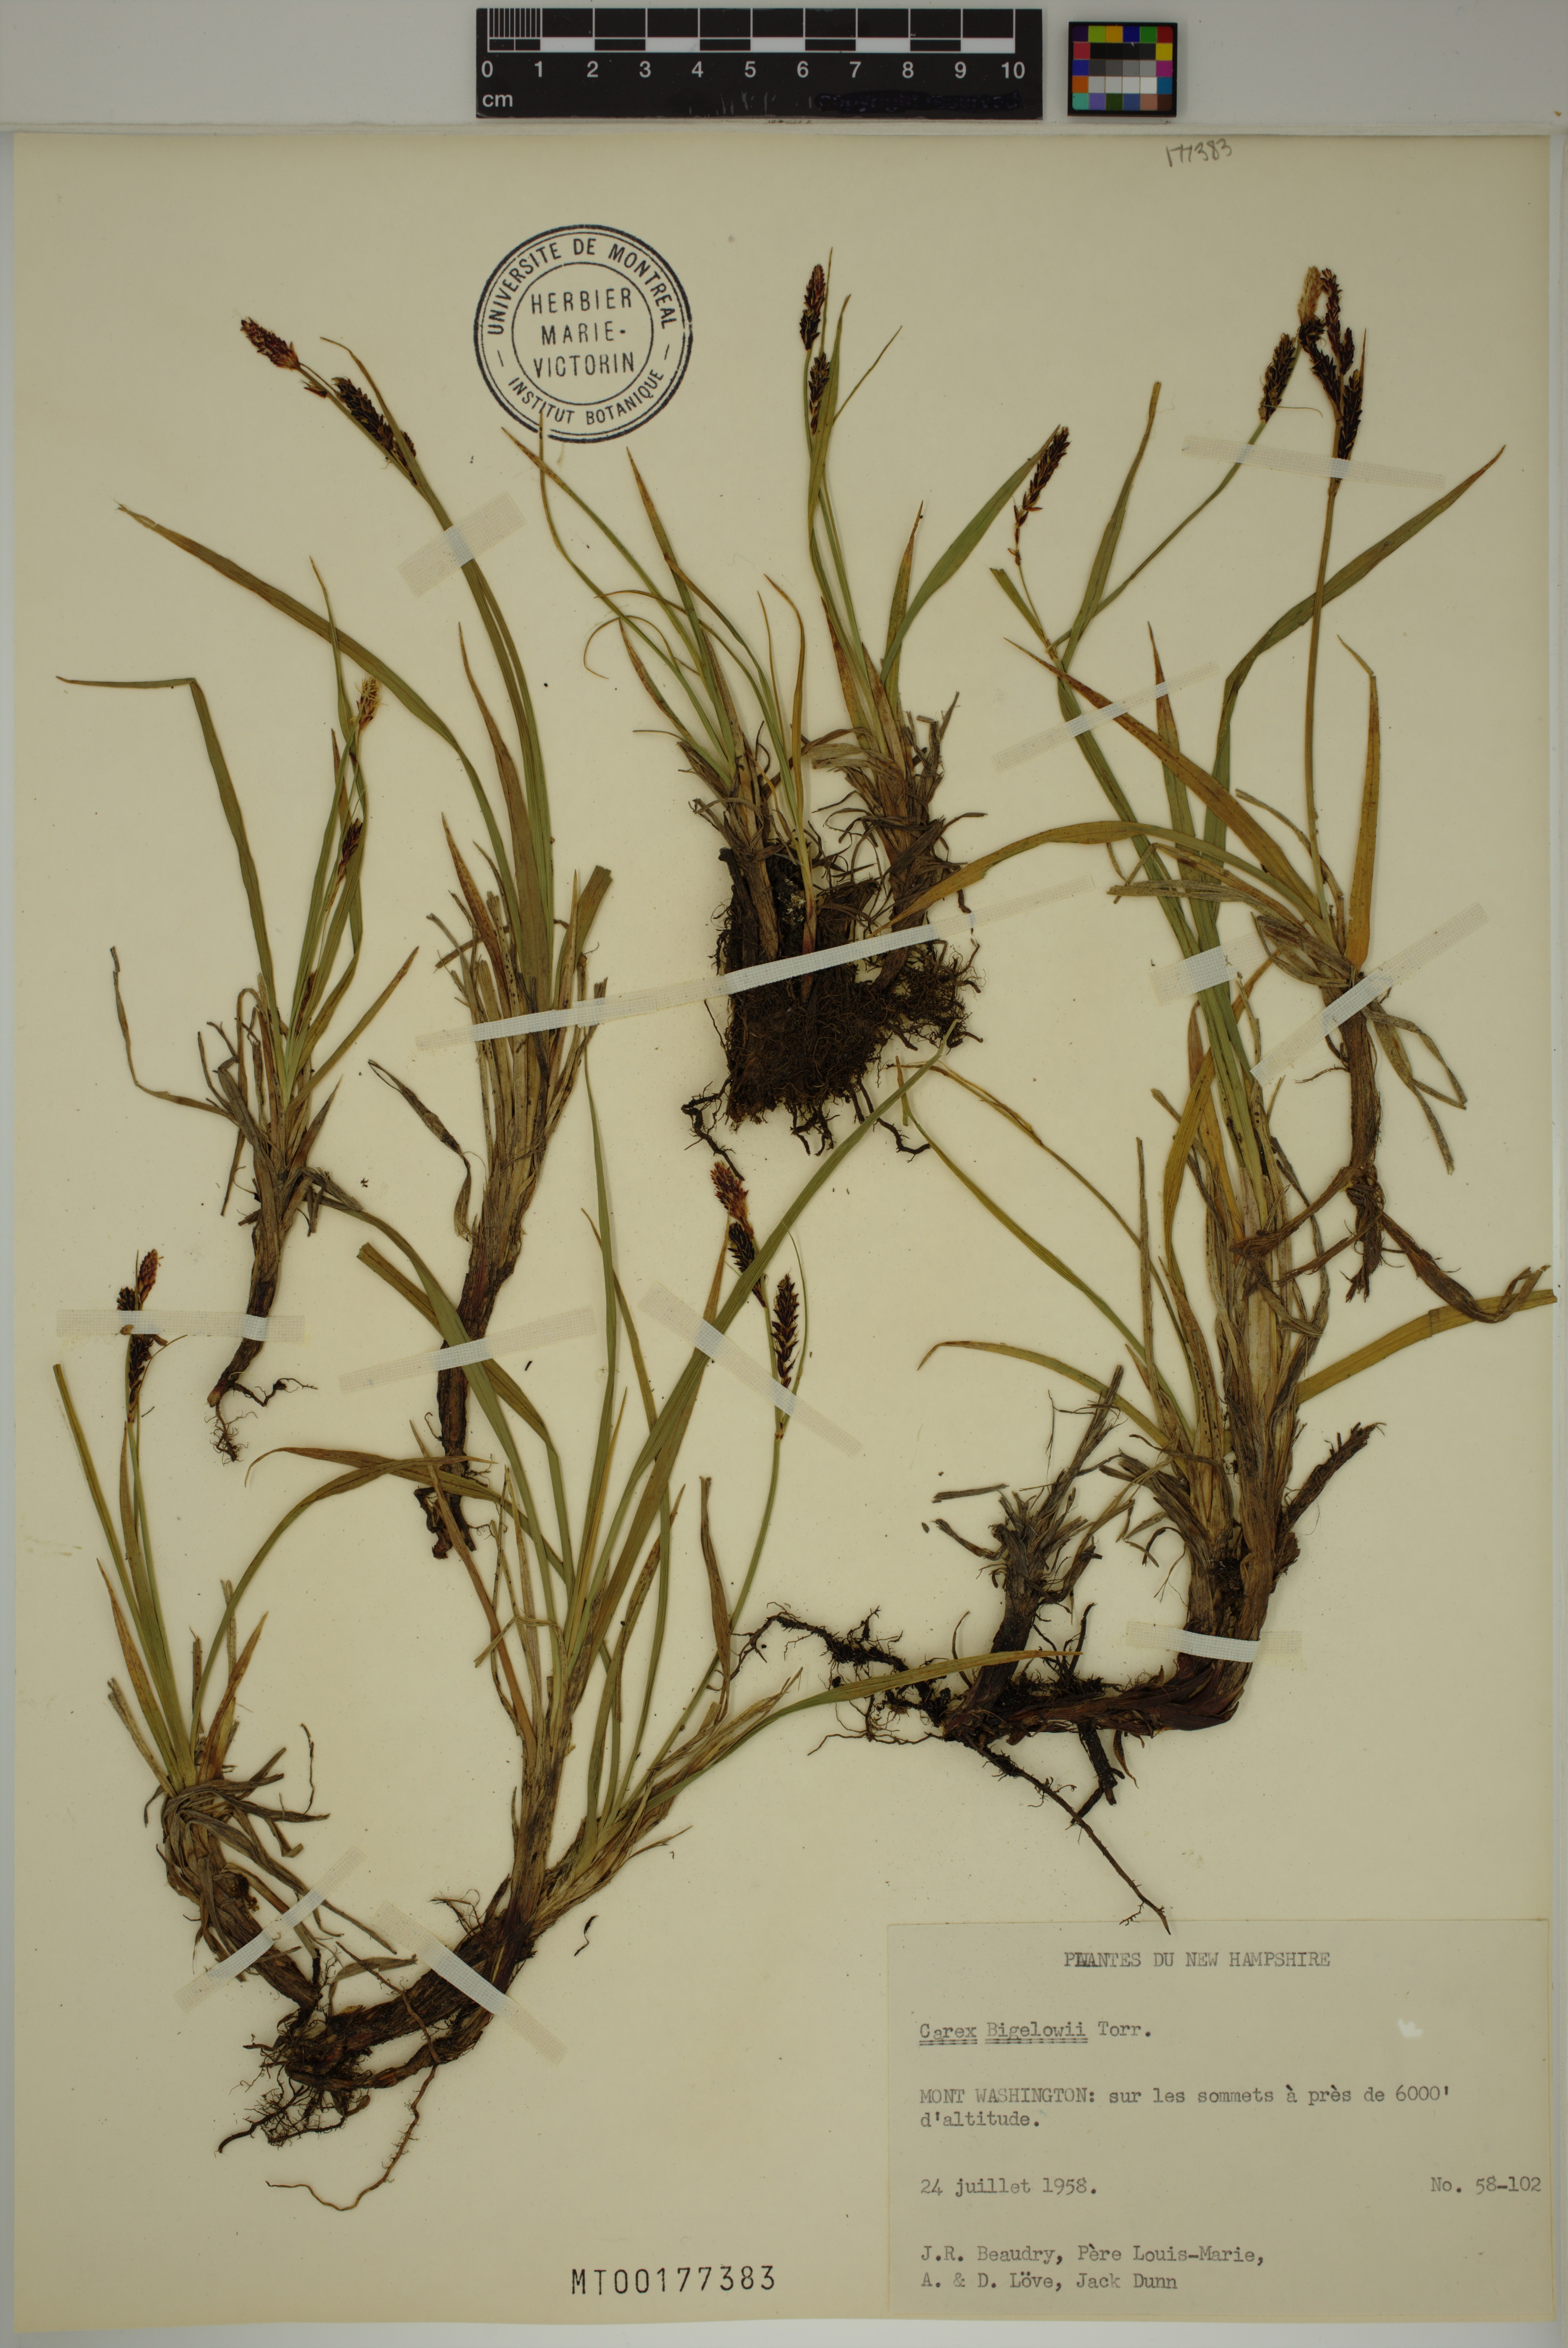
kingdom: Plantae
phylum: Tracheophyta
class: Liliopsida
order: Poales
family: Cyperaceae
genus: Carex
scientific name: Carex bigelowii
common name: Stiff sedge
